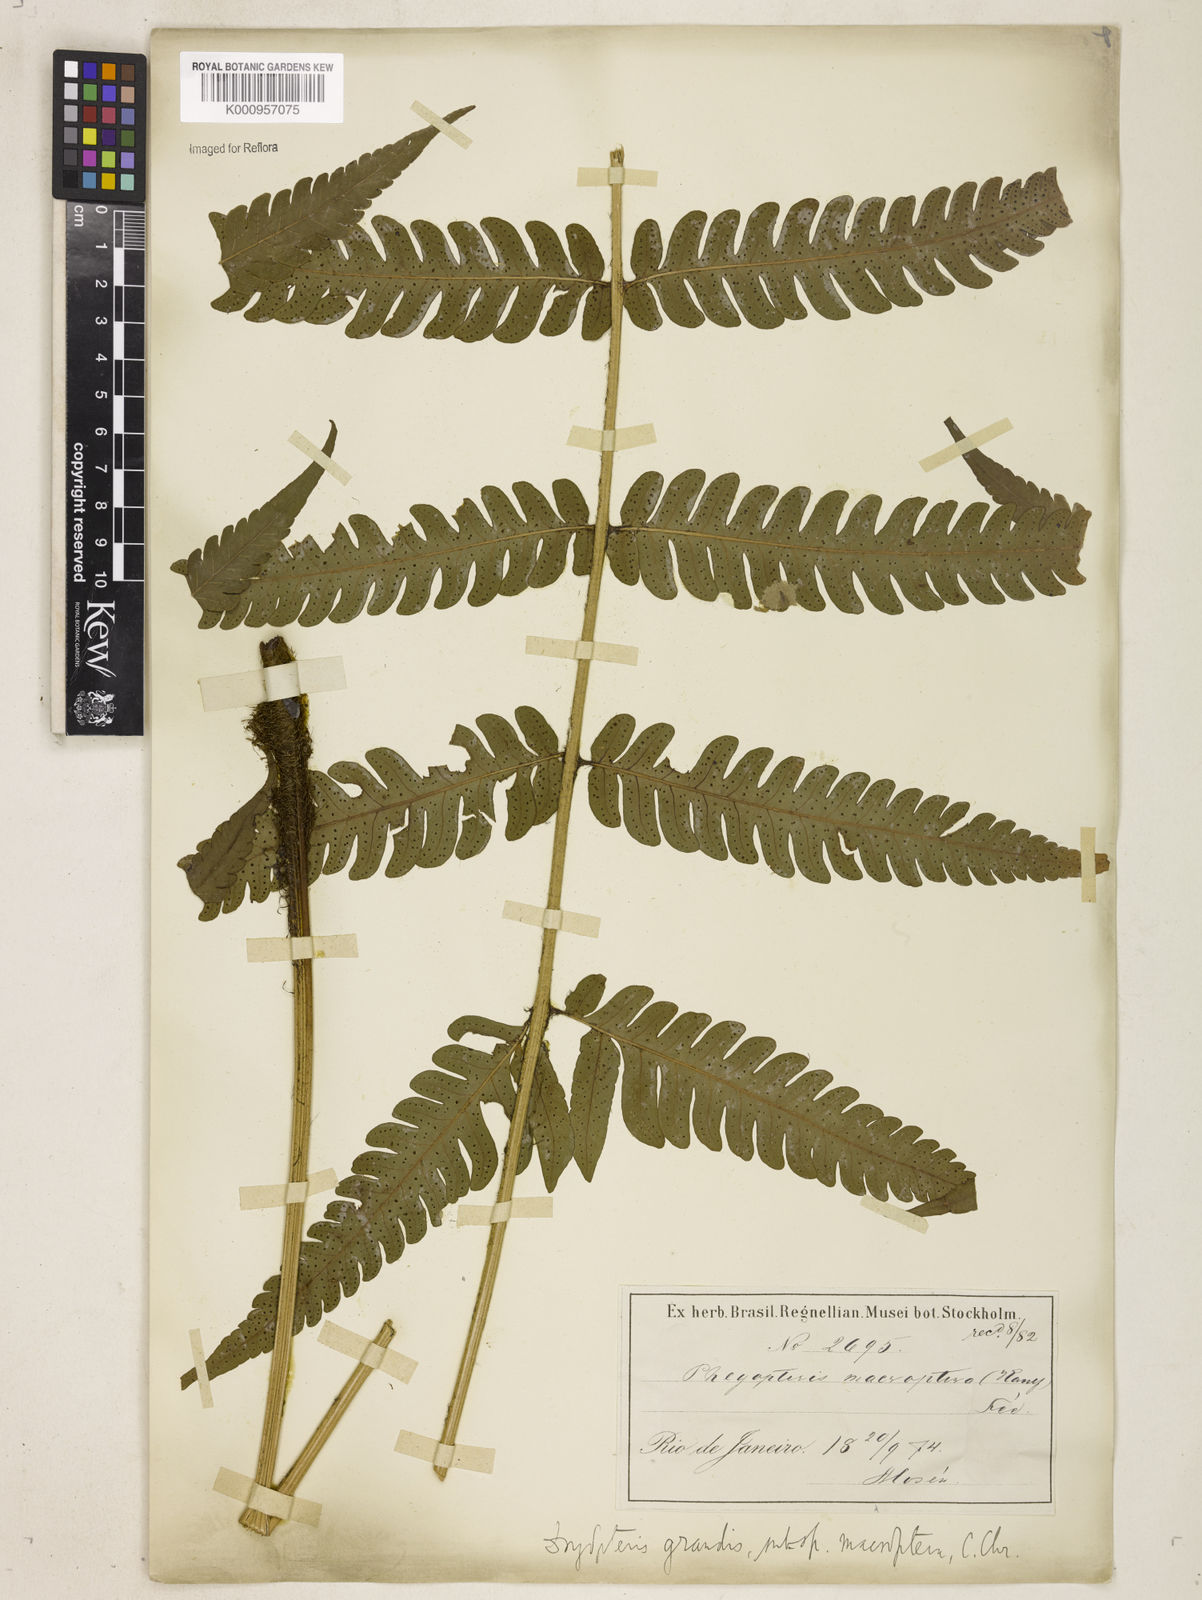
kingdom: Plantae
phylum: Tracheophyta
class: Polypodiopsida
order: Polypodiales
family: Dryopteridaceae
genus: Megalastrum
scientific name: Megalastrum grande
